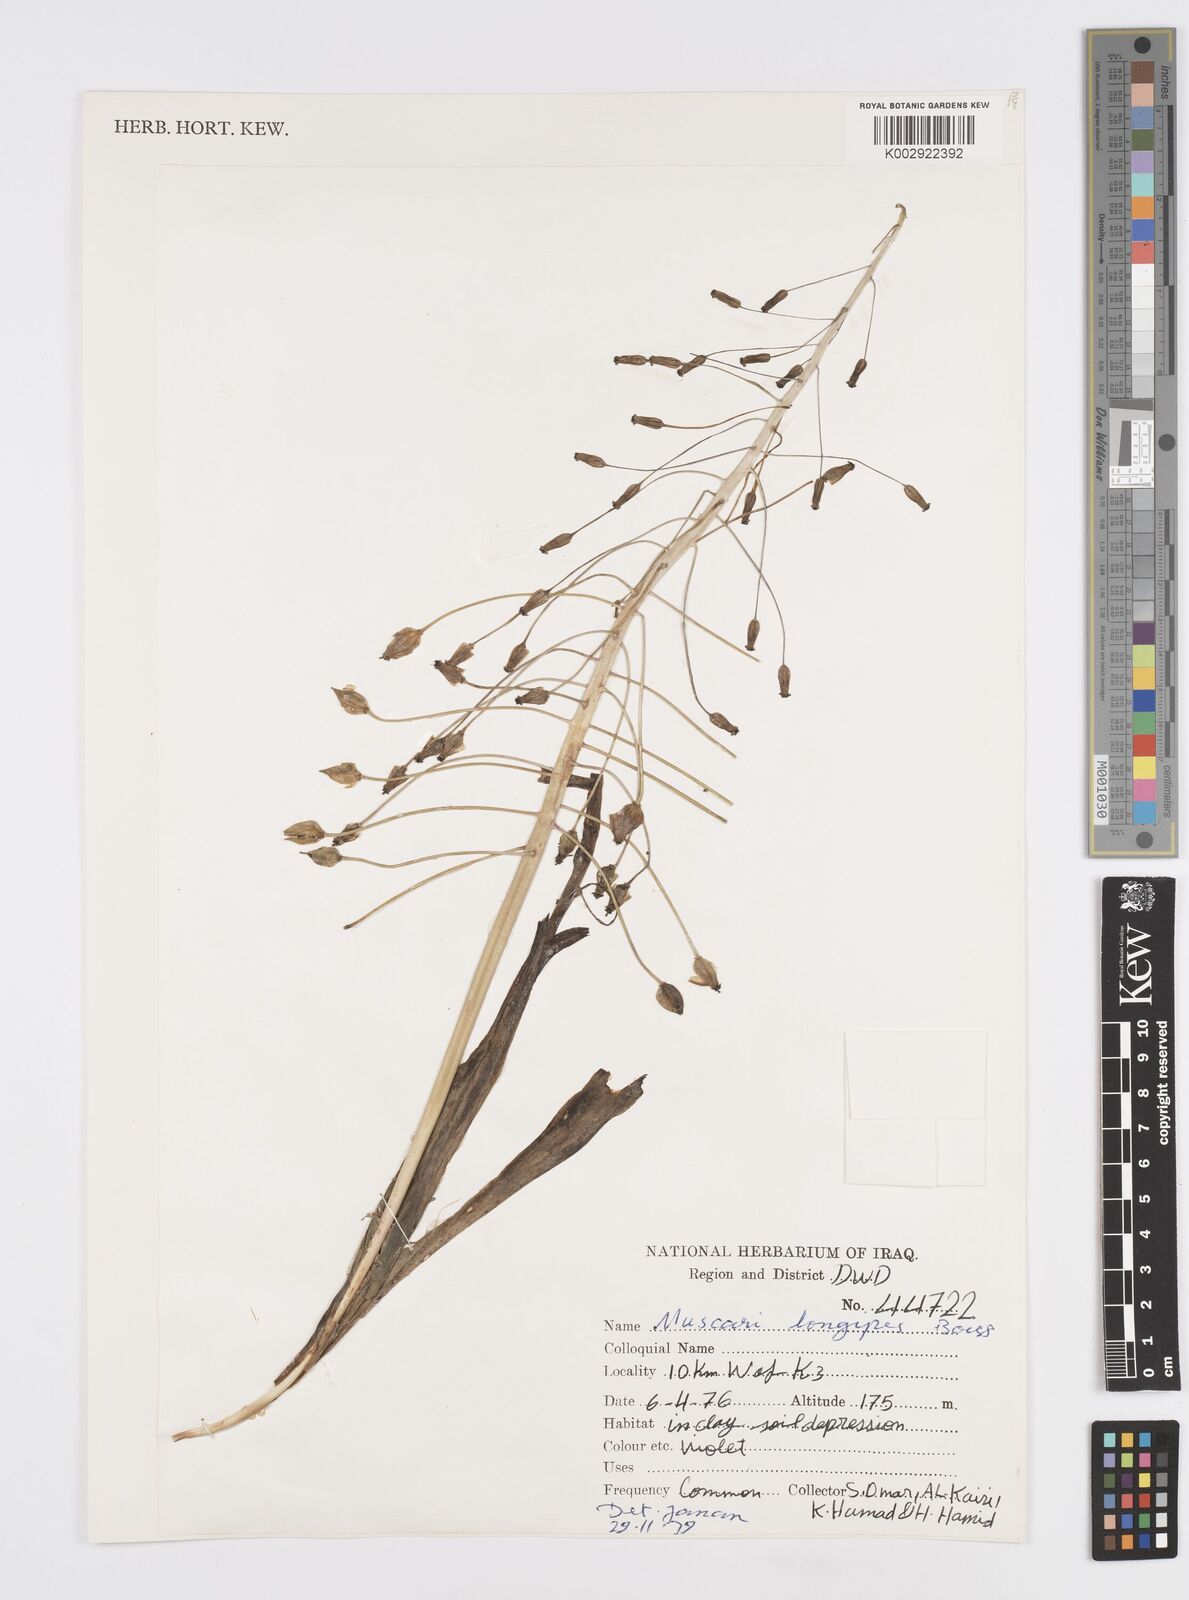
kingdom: Plantae
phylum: Tracheophyta
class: Liliopsida
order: Asparagales
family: Asparagaceae
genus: Muscari
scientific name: Muscari longipes
